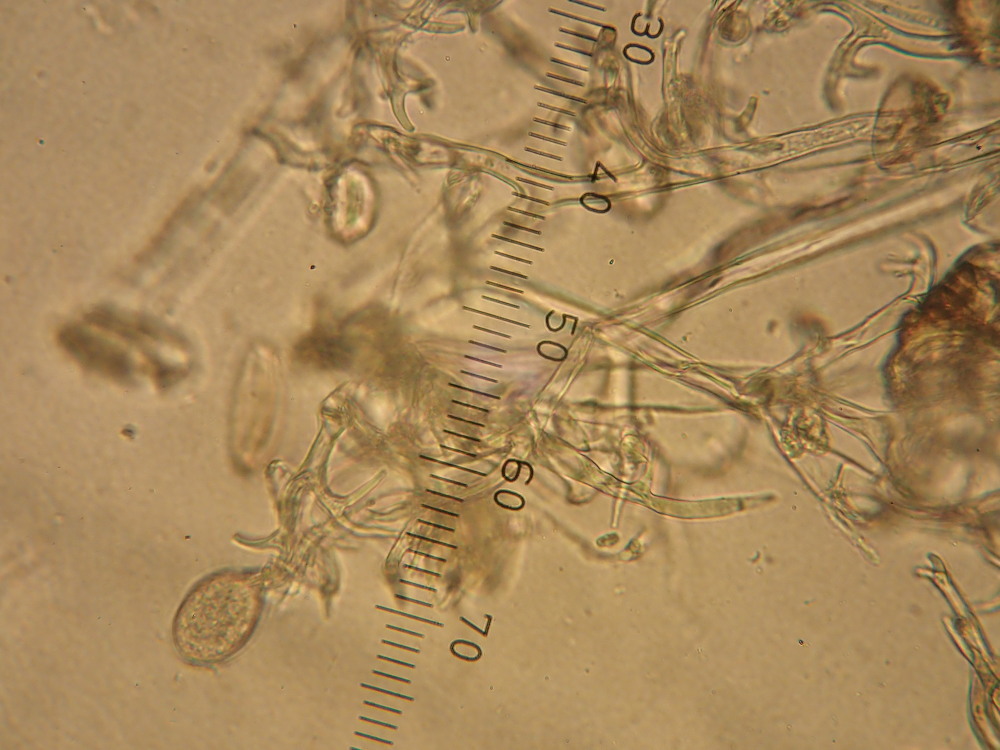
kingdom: Chromista
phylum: Oomycota
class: Peronosporea
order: Peronosporales
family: Peronosporaceae
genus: Peronospora
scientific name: Peronospora farinosa
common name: Beet downy mildew
